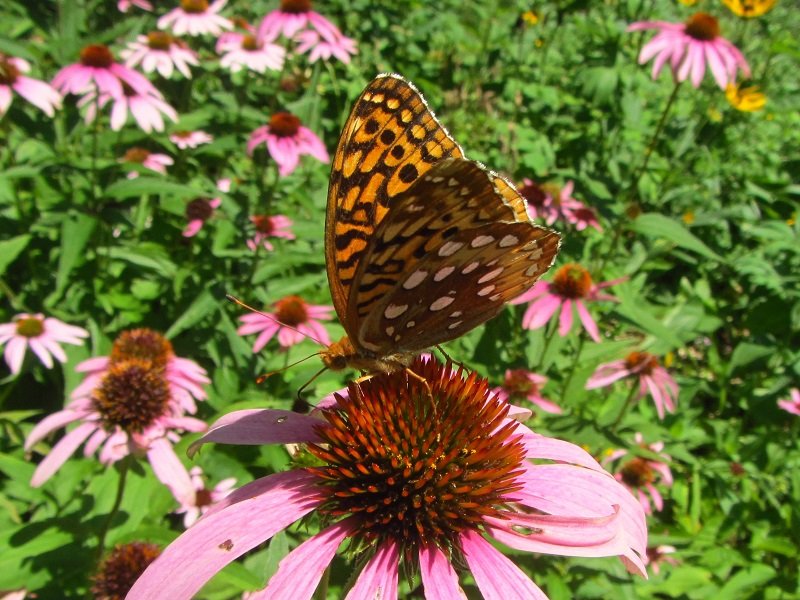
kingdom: Animalia
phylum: Arthropoda
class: Insecta
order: Lepidoptera
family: Nymphalidae
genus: Speyeria
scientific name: Speyeria cybele
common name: Great Spangled Fritillary
